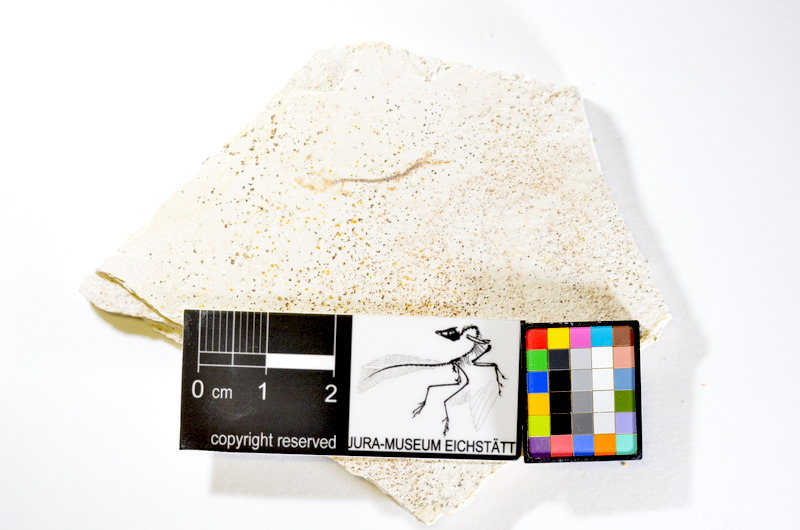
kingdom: Animalia
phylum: Chordata
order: Salmoniformes
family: Orthogonikleithridae
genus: Orthogonikleithrus
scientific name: Orthogonikleithrus hoelli
